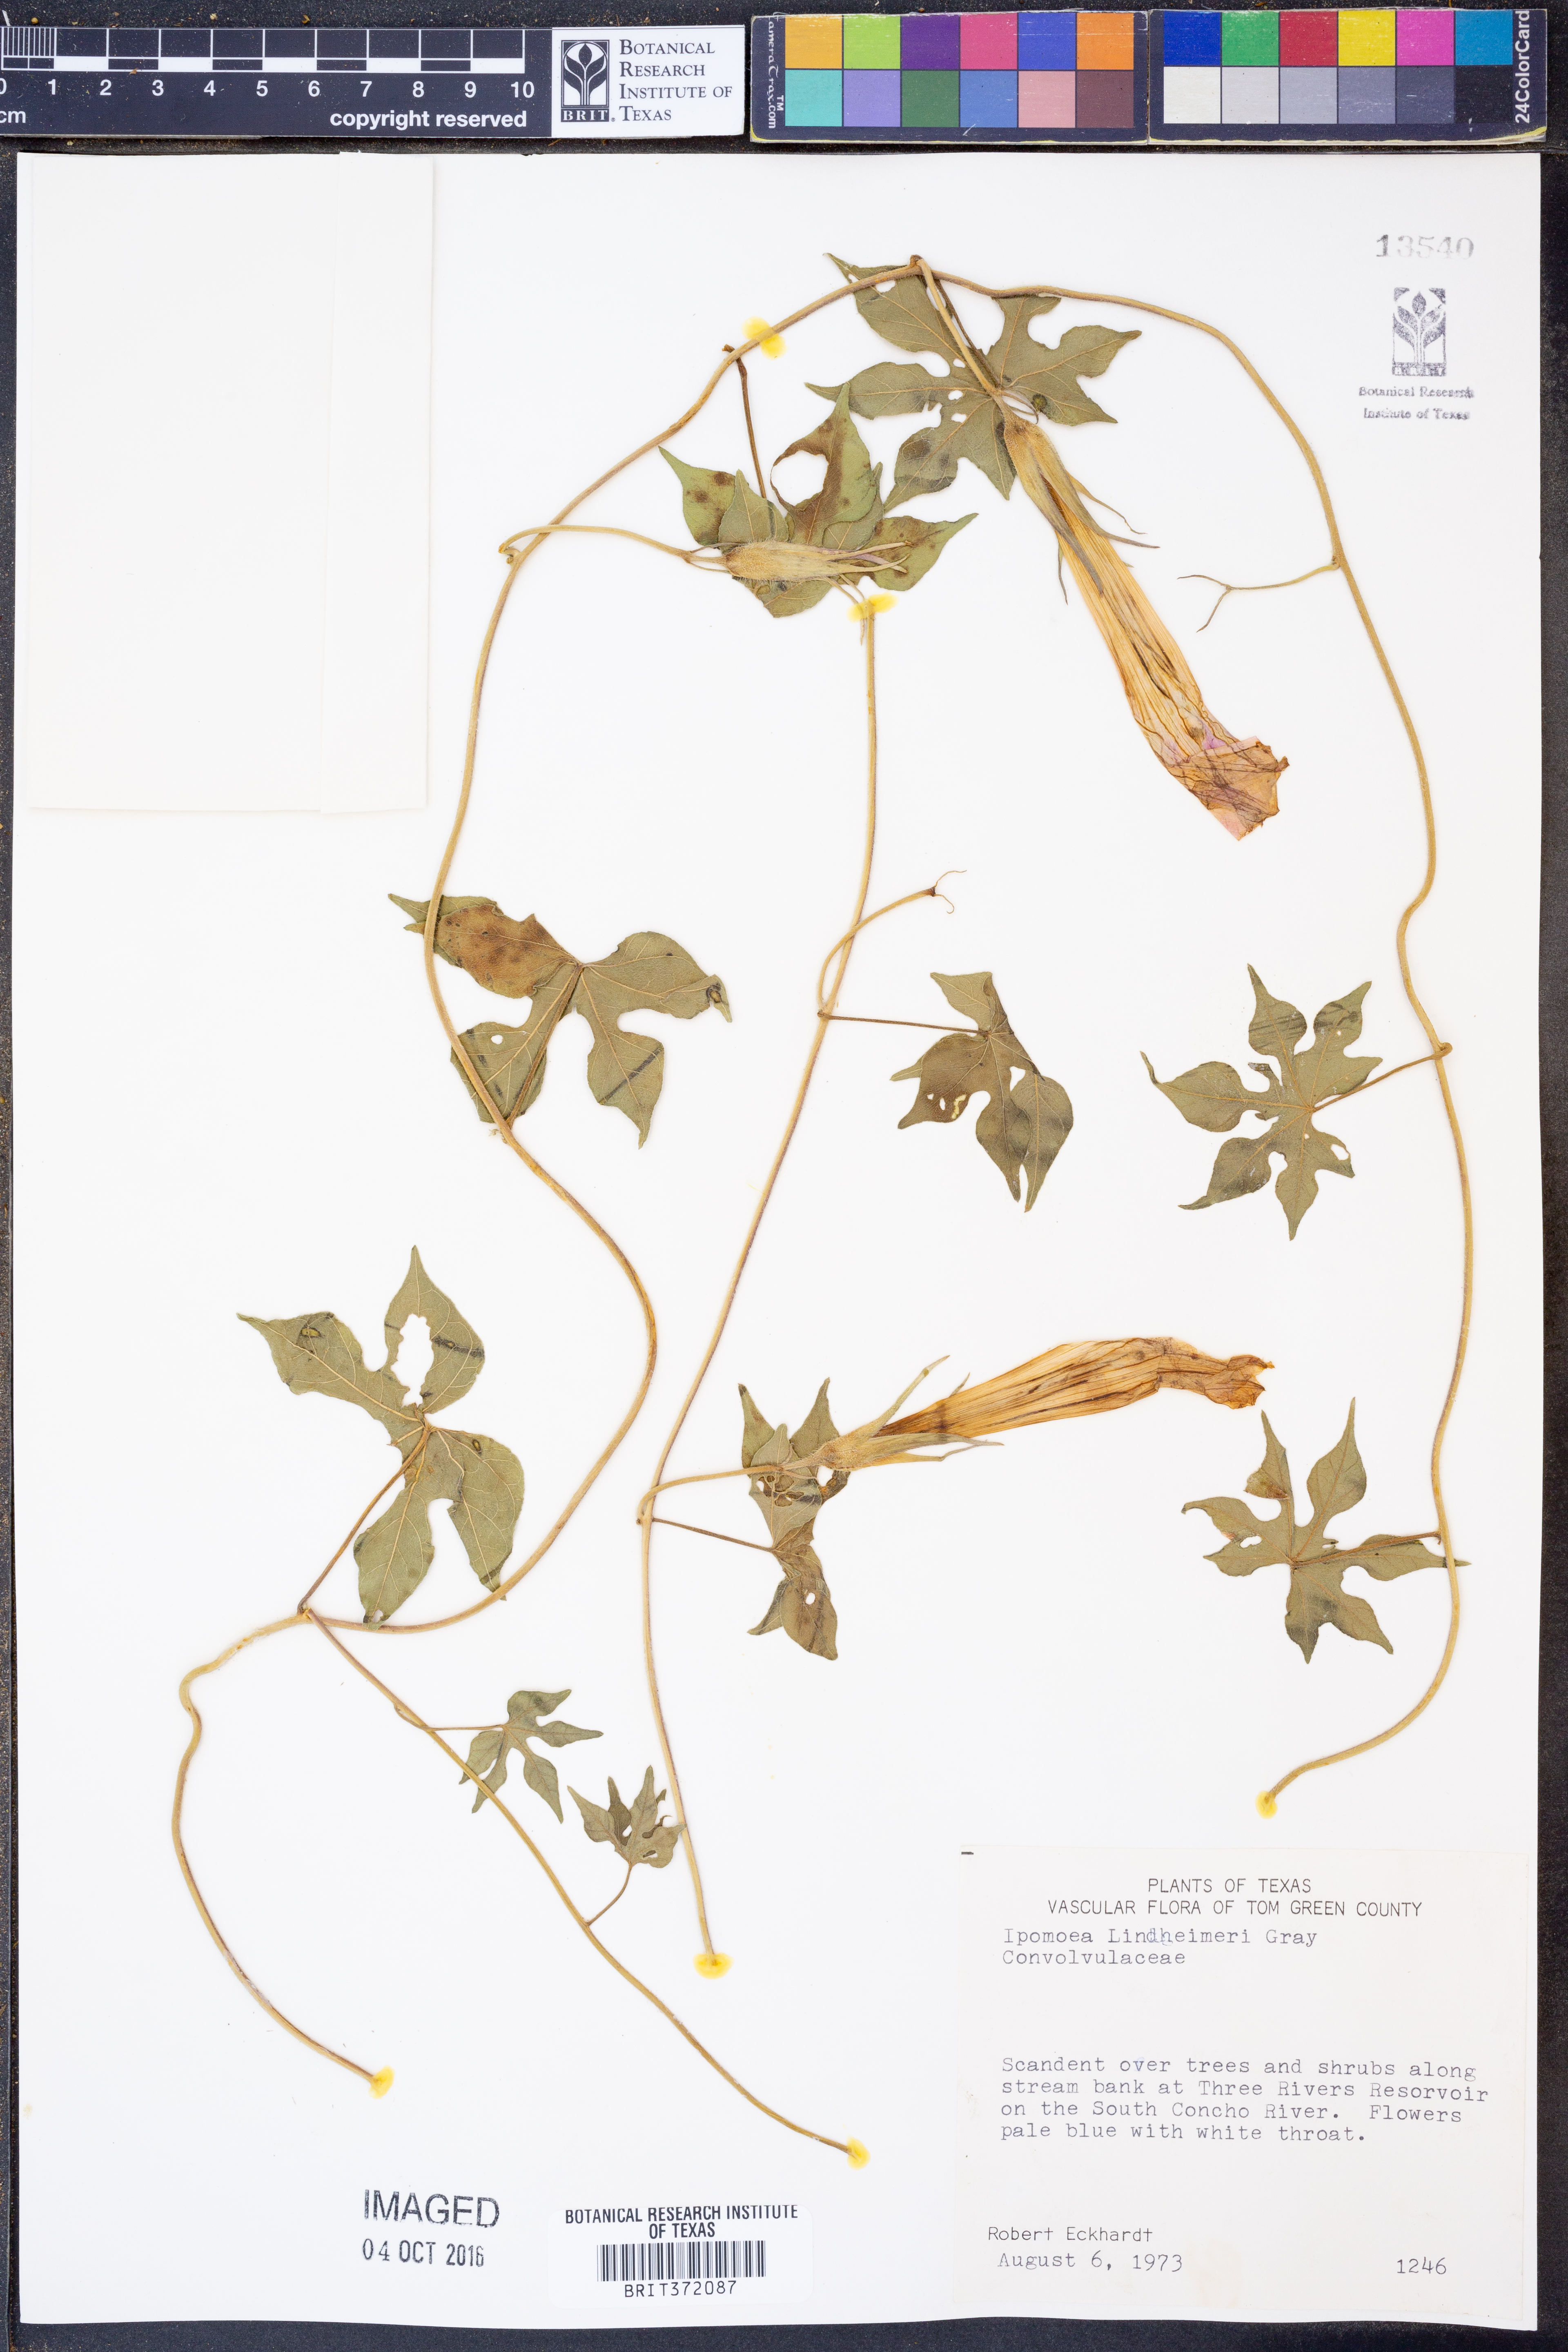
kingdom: Plantae
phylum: Tracheophyta
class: Magnoliopsida
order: Solanales
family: Convolvulaceae
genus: Ipomoea
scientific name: Ipomoea lindheimeri
